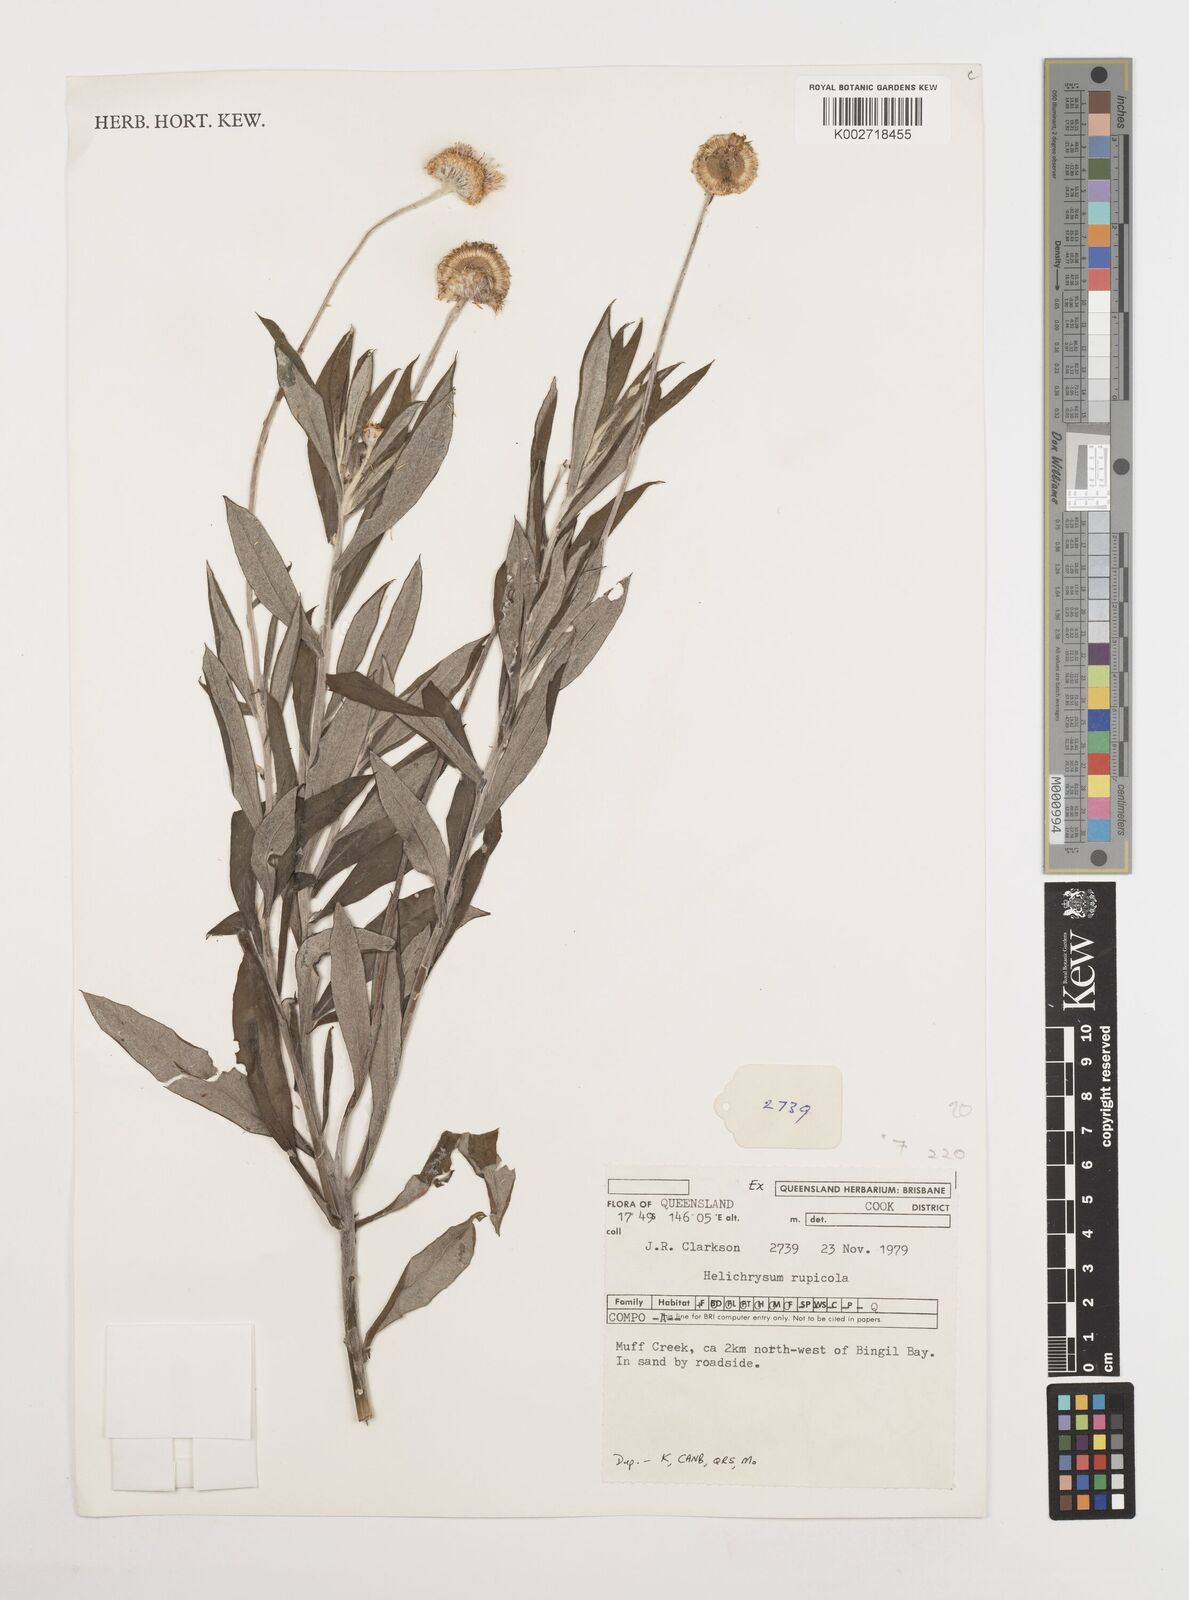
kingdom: Plantae
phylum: Tracheophyta
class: Magnoliopsida
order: Asterales
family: Asteraceae
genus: Coronidium
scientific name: Coronidium rupicola
